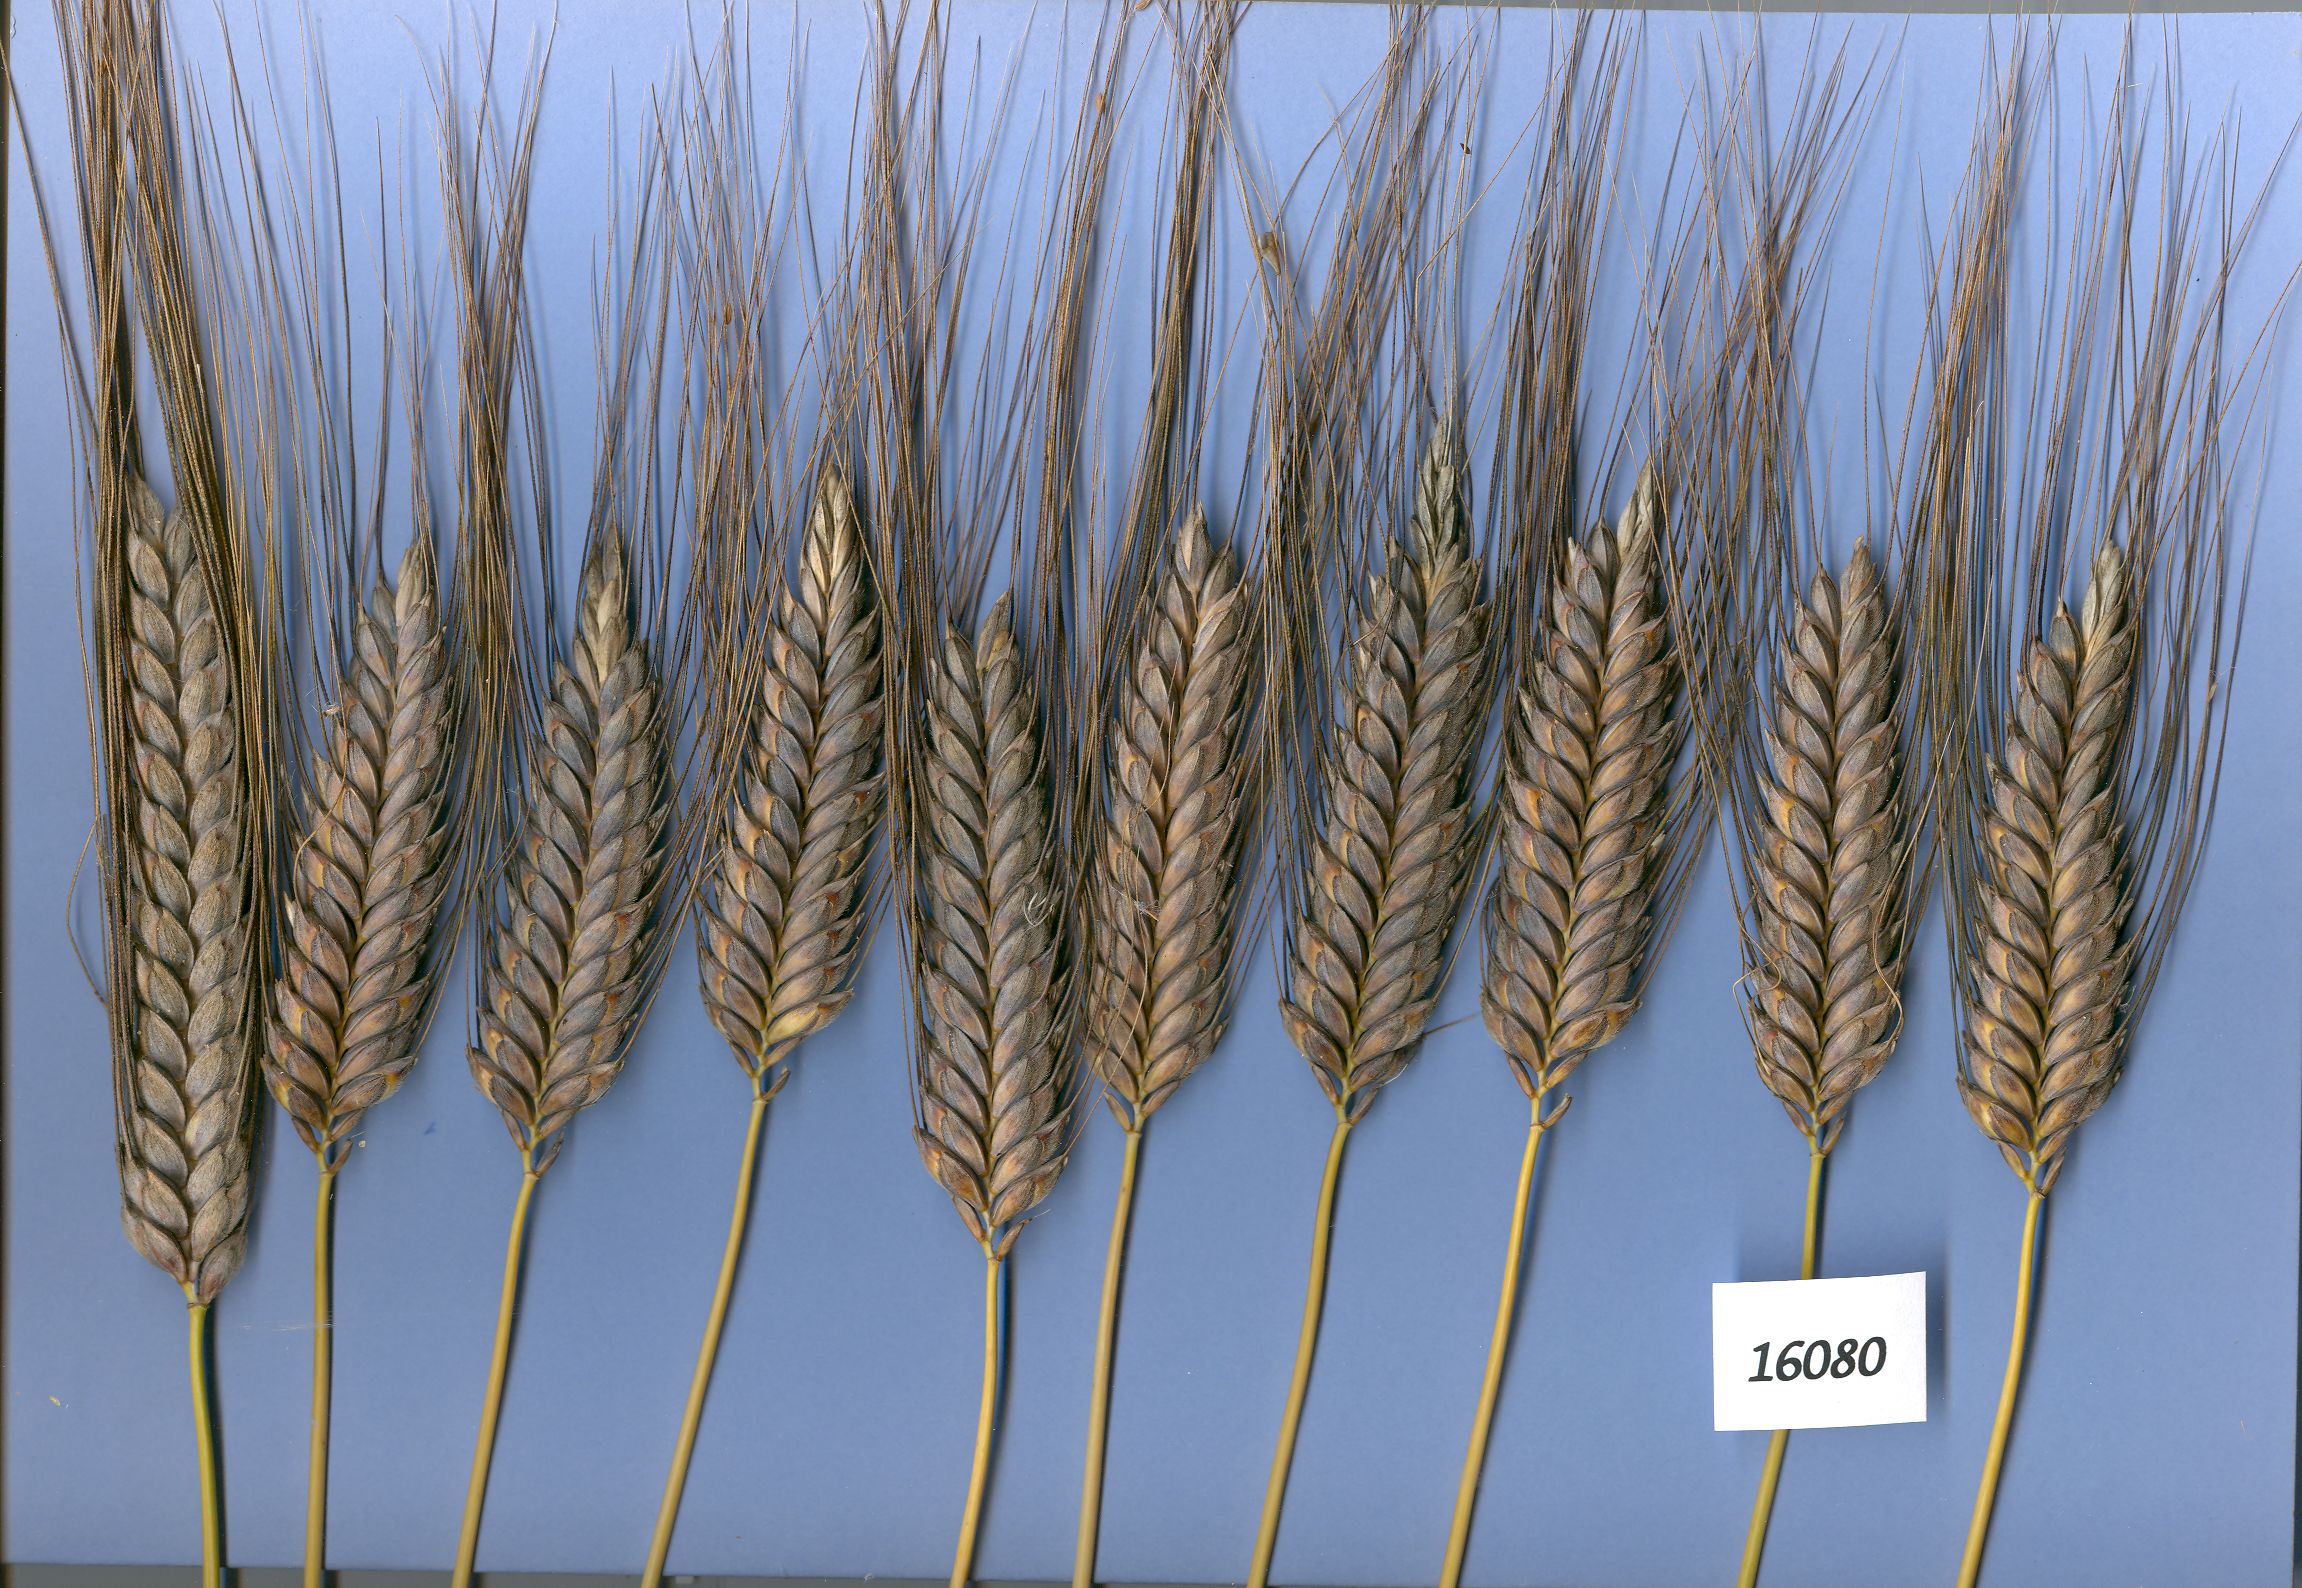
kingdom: Plantae
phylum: Tracheophyta
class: Liliopsida
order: Poales
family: Poaceae
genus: Triticum
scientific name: Triticum turgidum
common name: Rivet wheat
